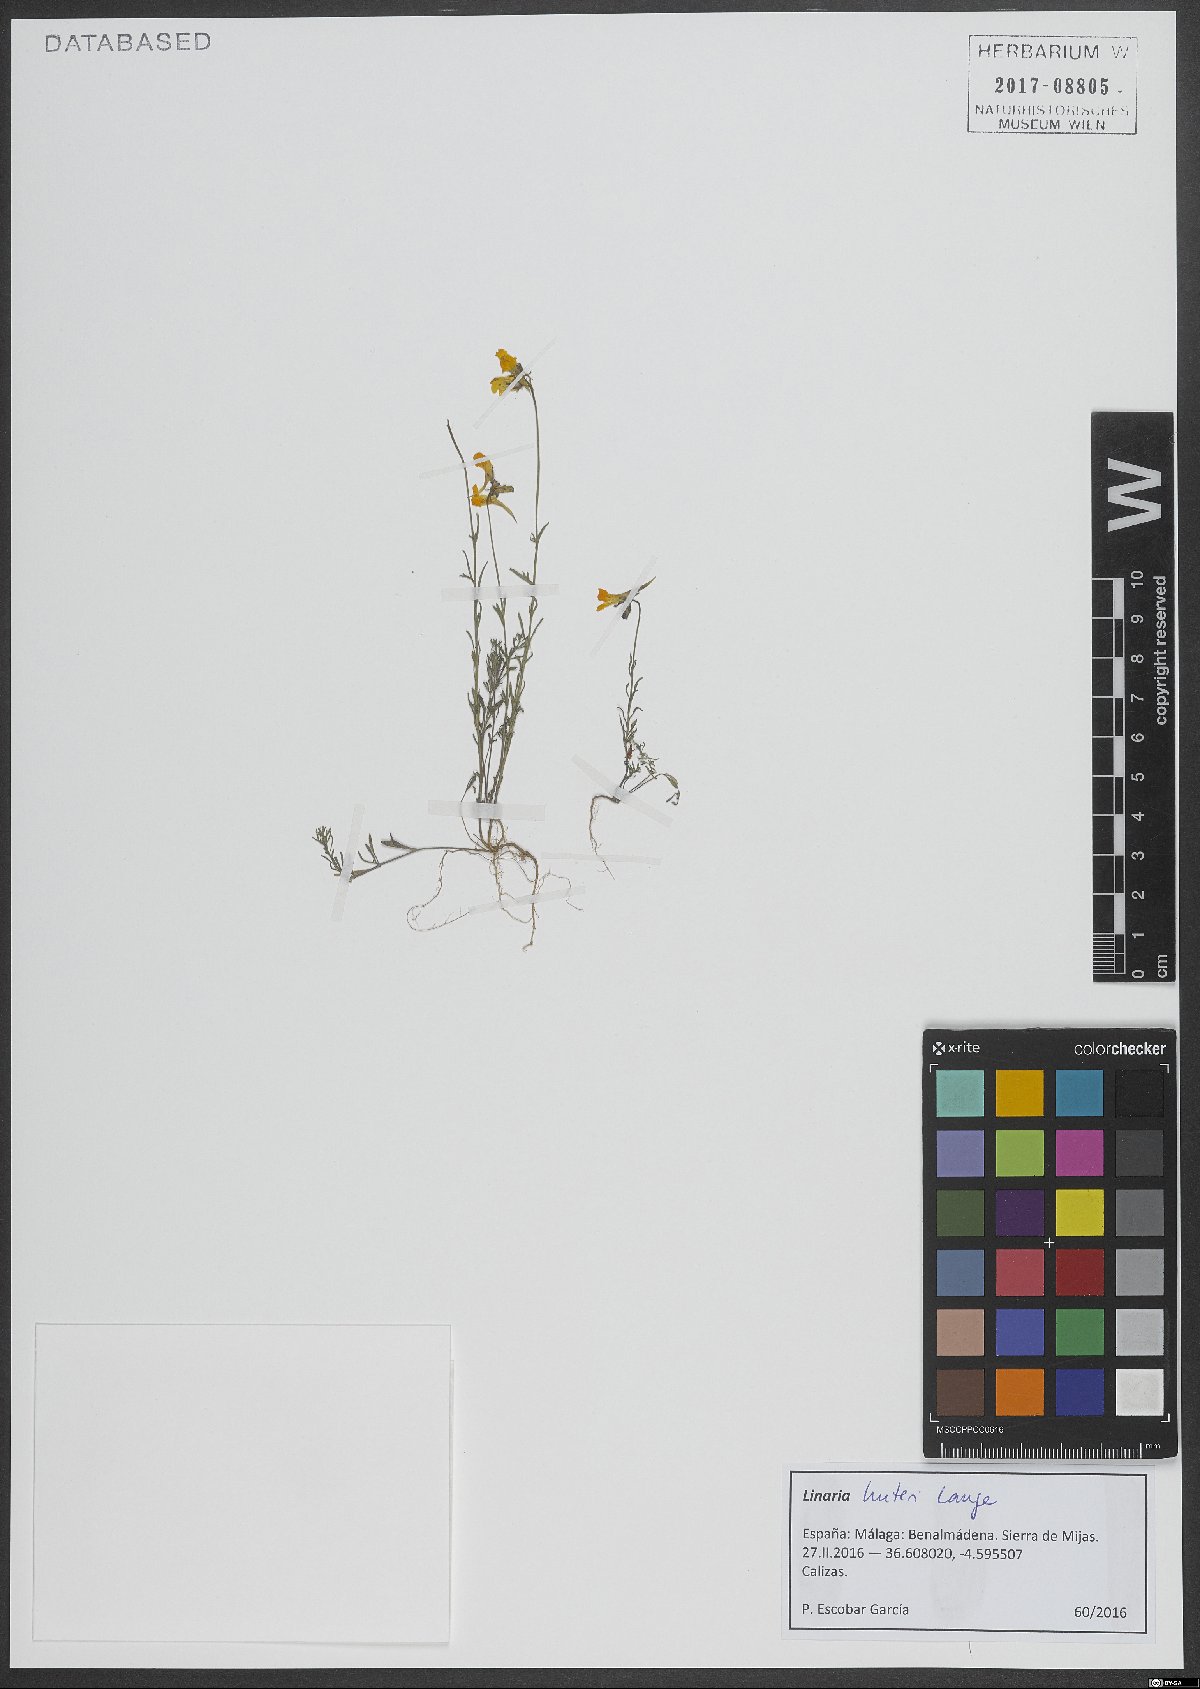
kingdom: Plantae
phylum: Tracheophyta
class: Magnoliopsida
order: Lamiales
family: Plantaginaceae
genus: Linaria
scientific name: Linaria huteri
